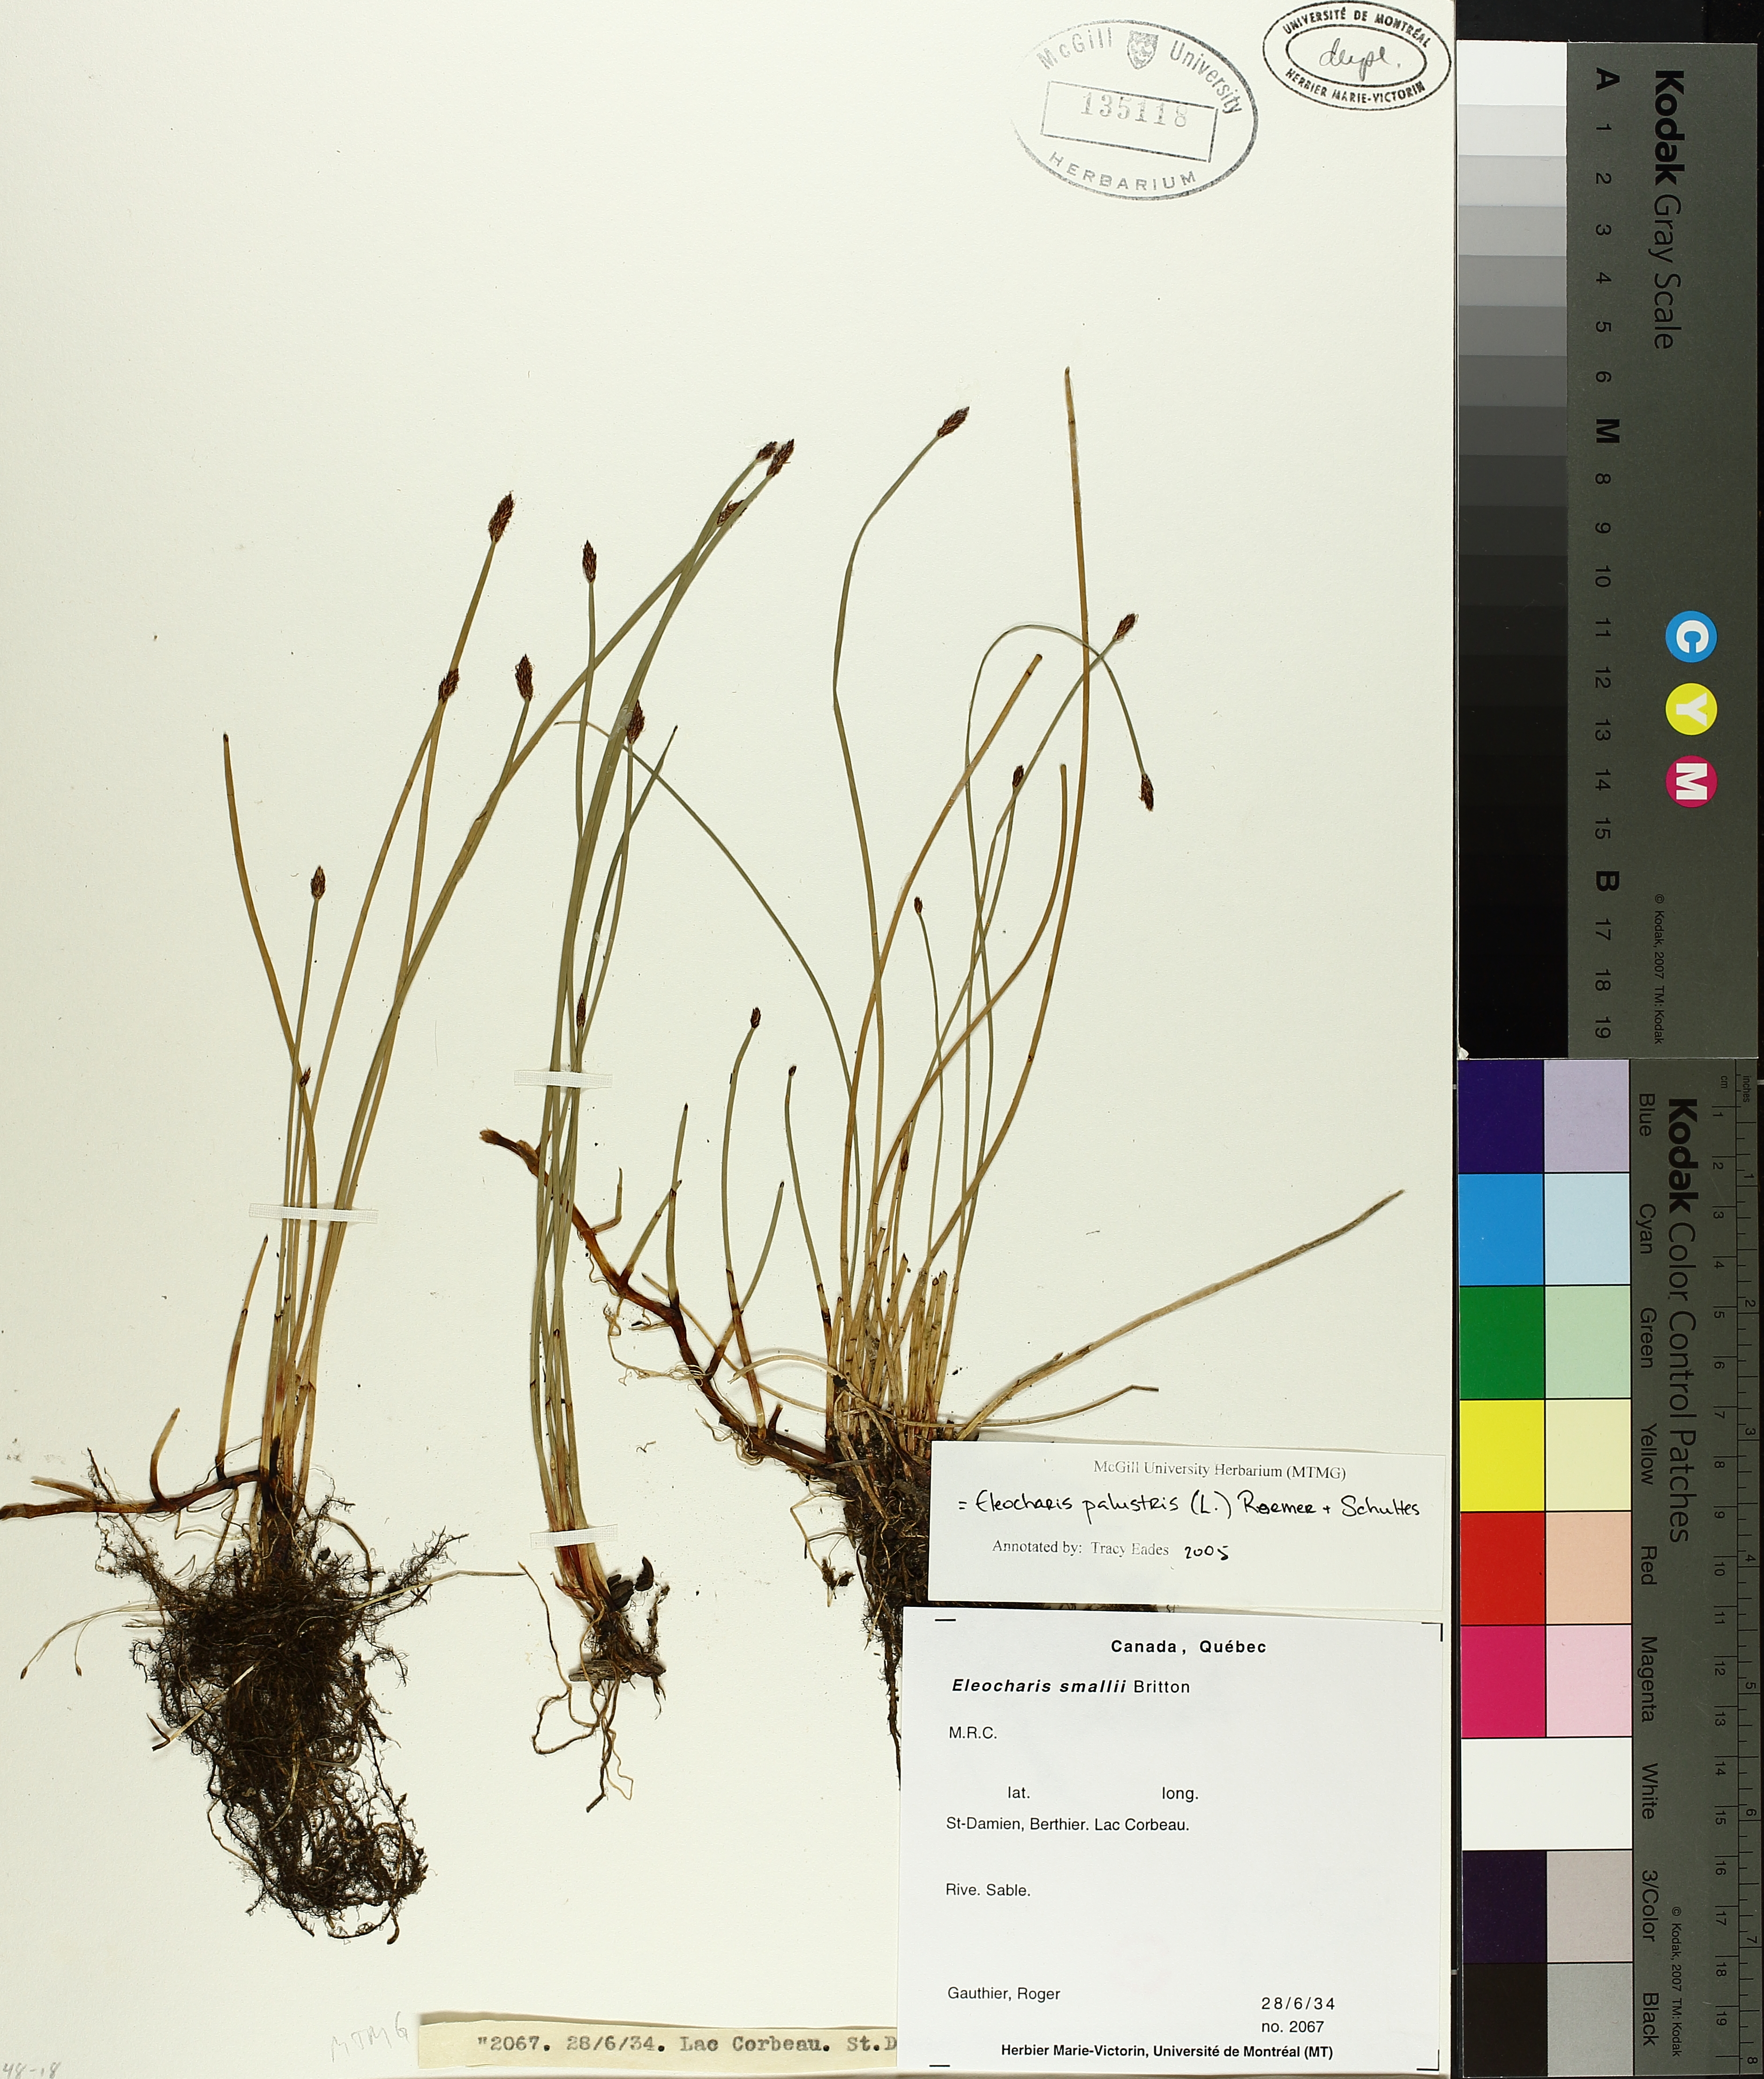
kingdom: Plantae
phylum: Tracheophyta
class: Liliopsida
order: Poales
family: Cyperaceae
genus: Eleocharis
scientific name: Eleocharis palustris
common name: Common spike-rush
